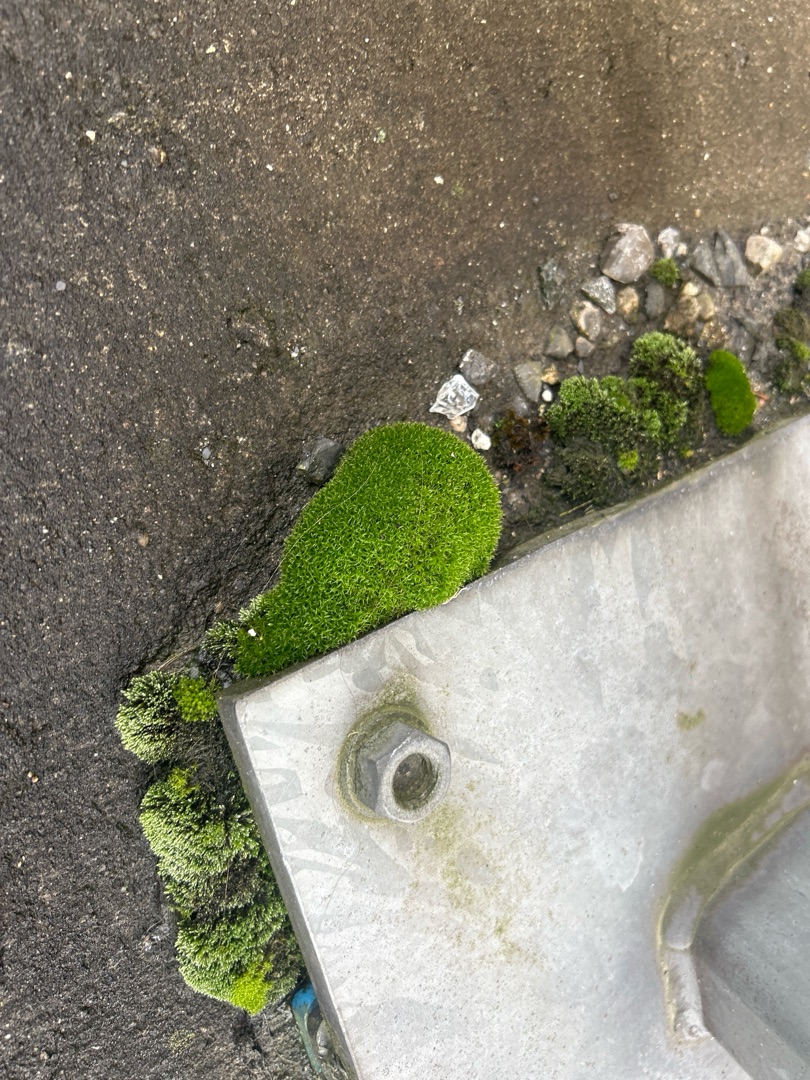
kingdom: Plantae
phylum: Bryophyta
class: Bryopsida
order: Dicranales
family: Ditrichaceae
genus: Ceratodon
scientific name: Ceratodon purpureus
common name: Rød horntand
